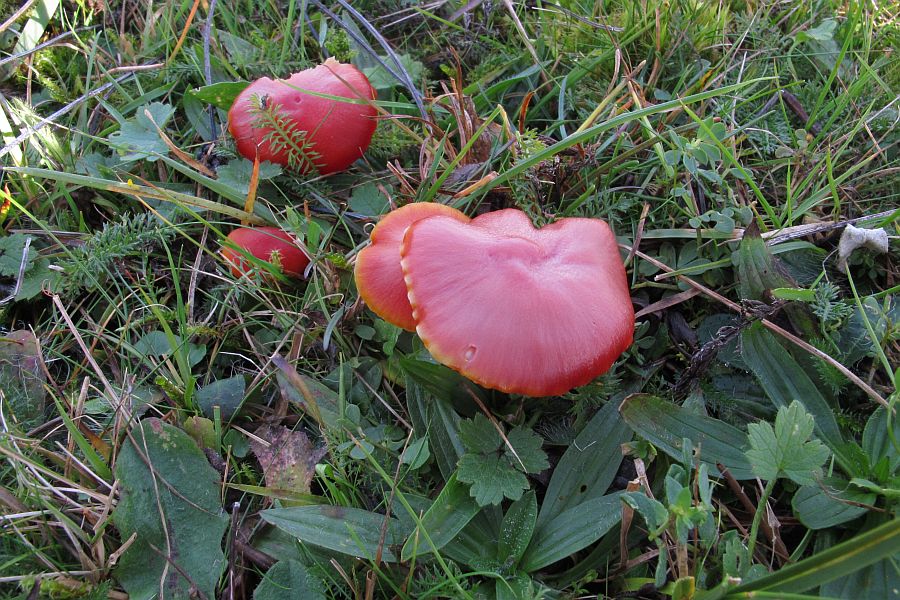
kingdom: Fungi
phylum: Basidiomycota
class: Agaricomycetes
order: Agaricales
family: Hygrophoraceae
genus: Hygrocybe
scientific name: Hygrocybe coccinea
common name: cinnober-vokshat
